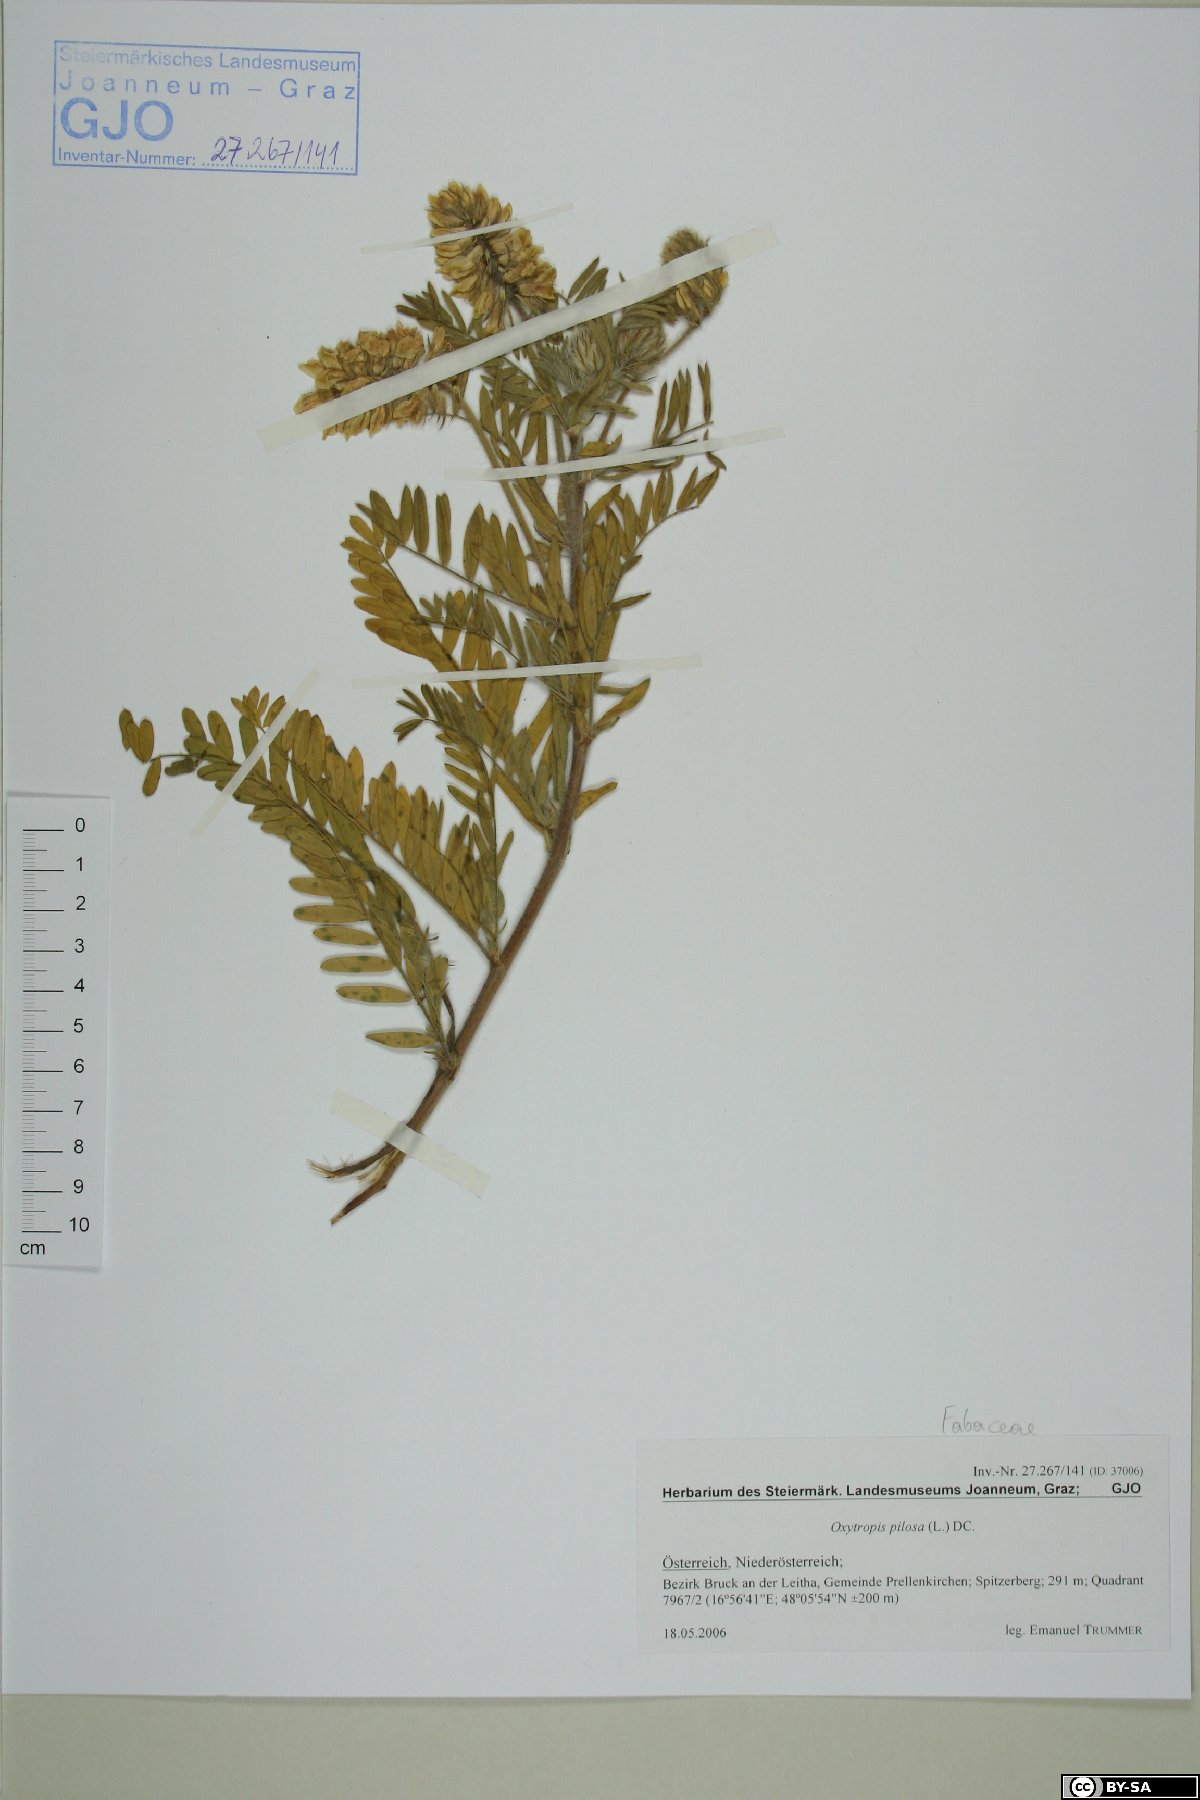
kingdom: Plantae
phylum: Tracheophyta
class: Magnoliopsida
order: Fabales
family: Fabaceae
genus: Oxytropis
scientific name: Oxytropis pilosa
